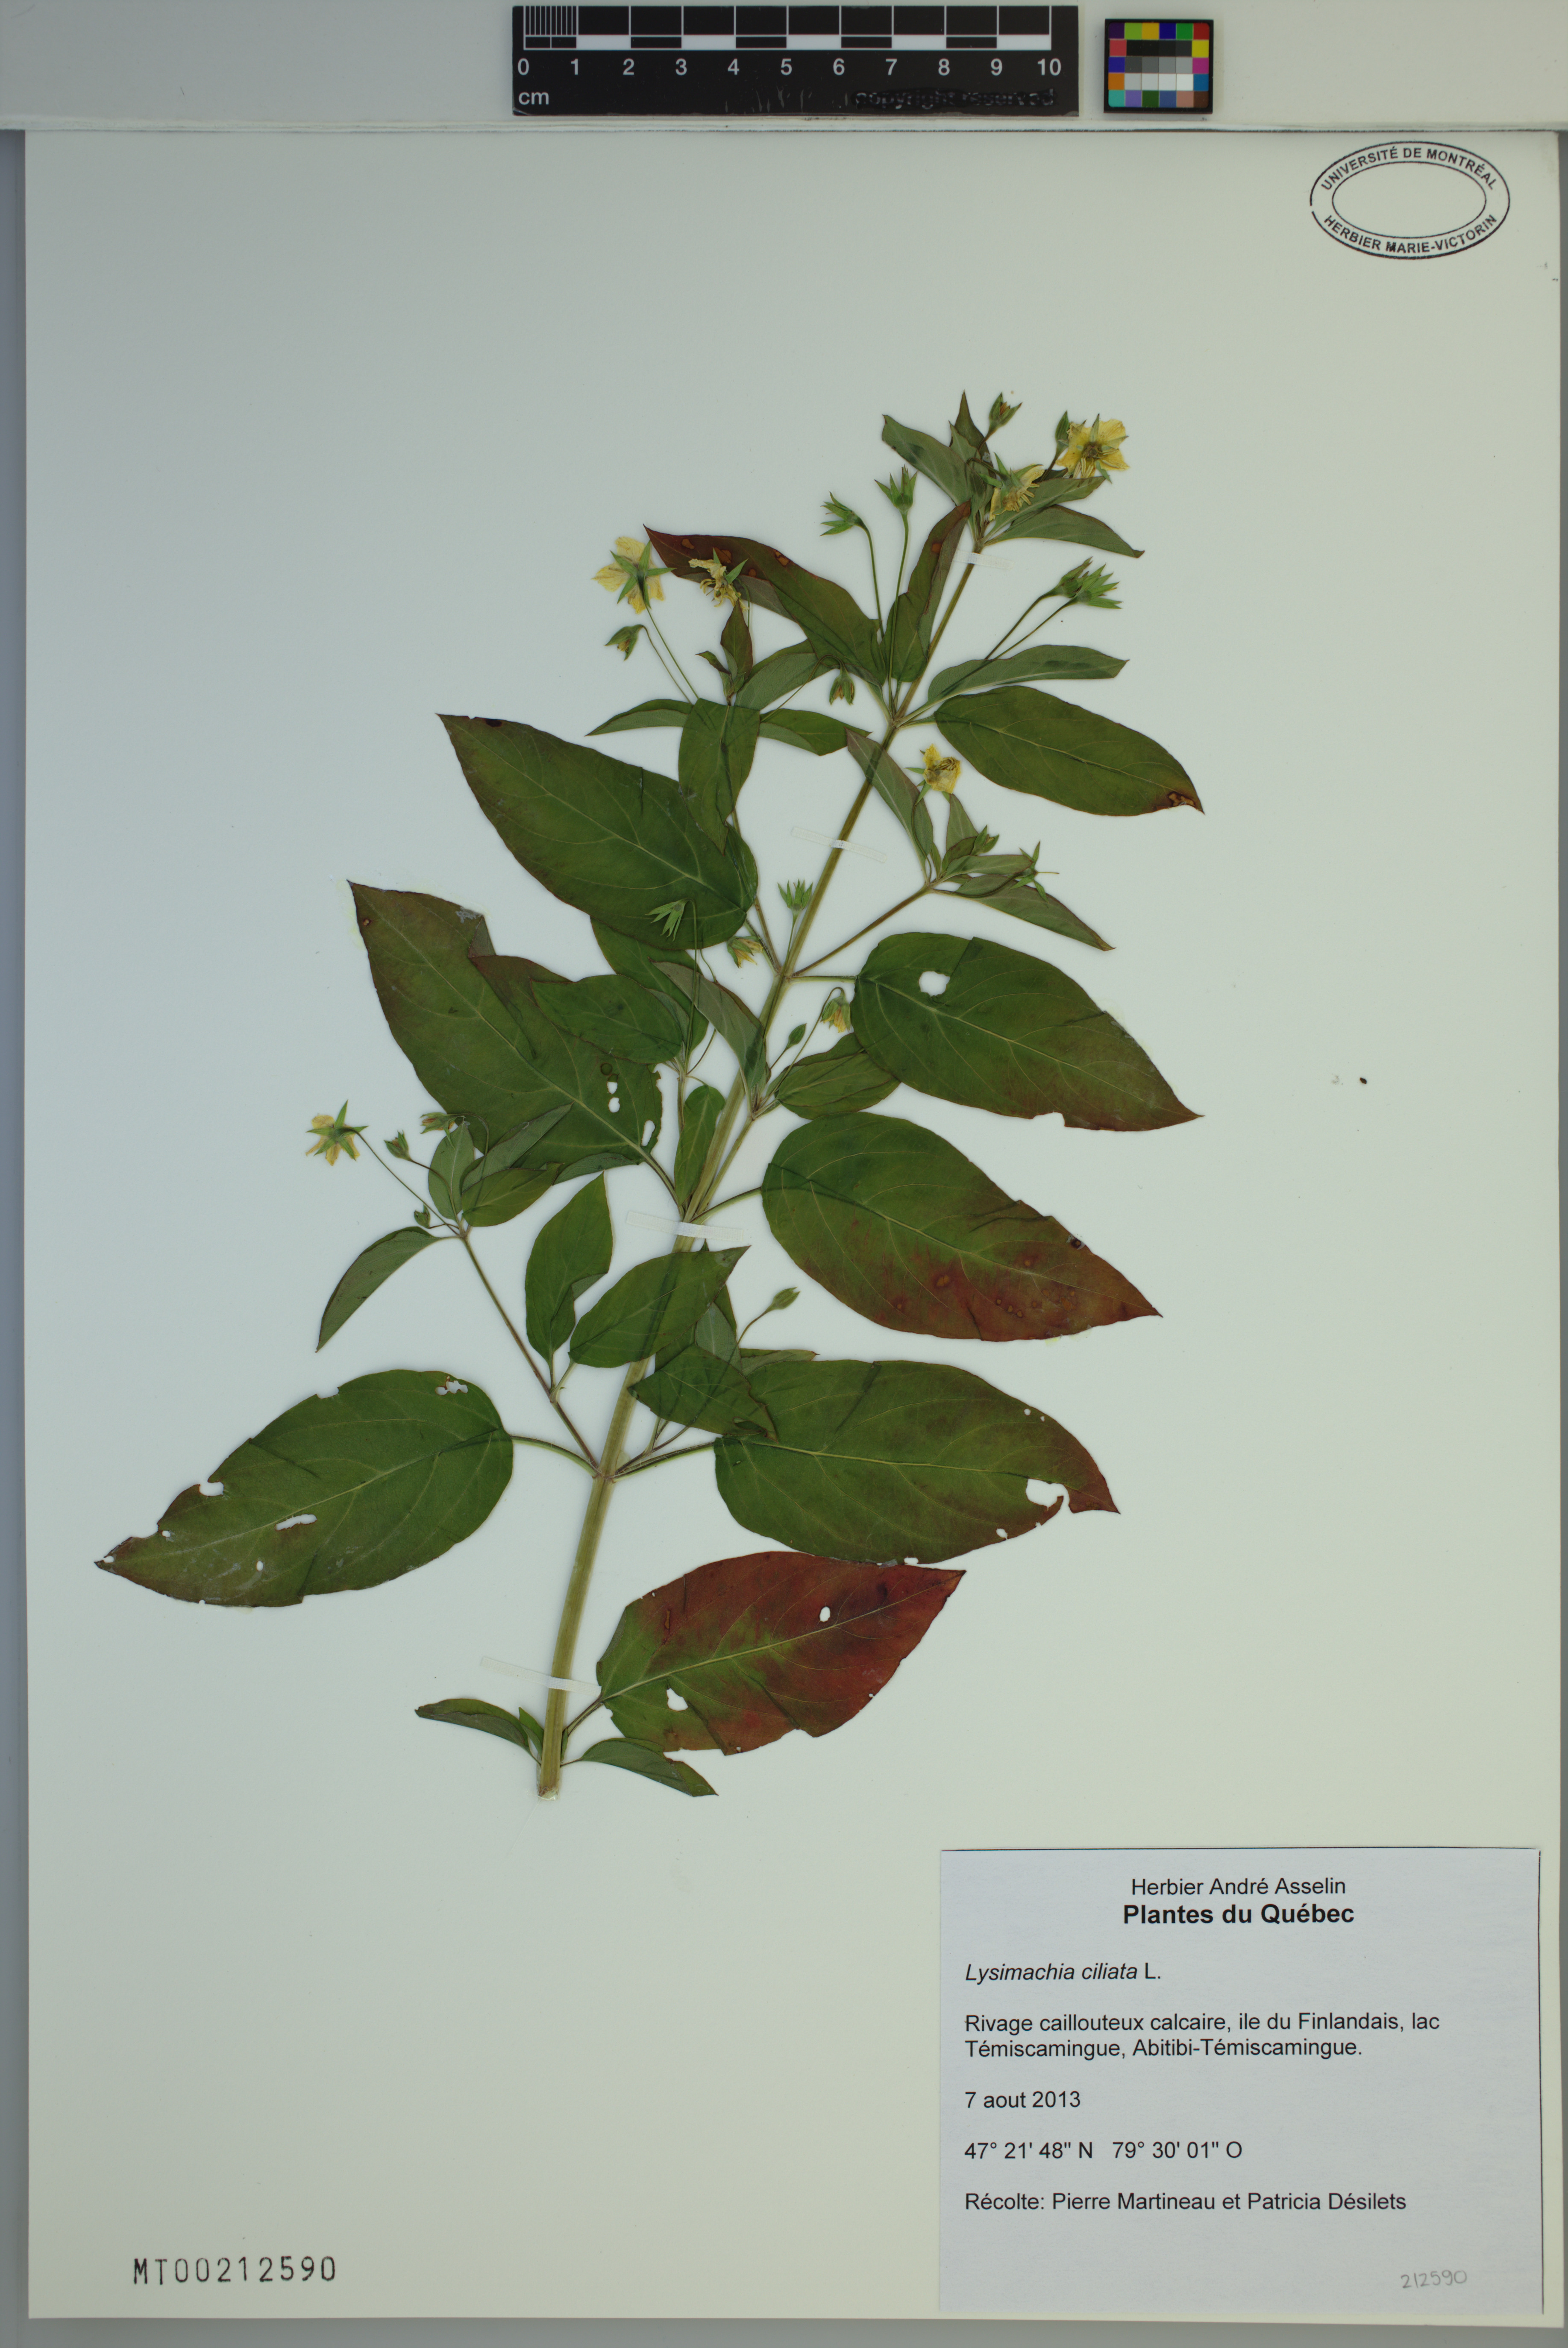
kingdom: Plantae
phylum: Tracheophyta
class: Magnoliopsida
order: Ericales
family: Primulaceae
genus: Lysimachia
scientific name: Lysimachia ciliata
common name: Fringed loosestrife
